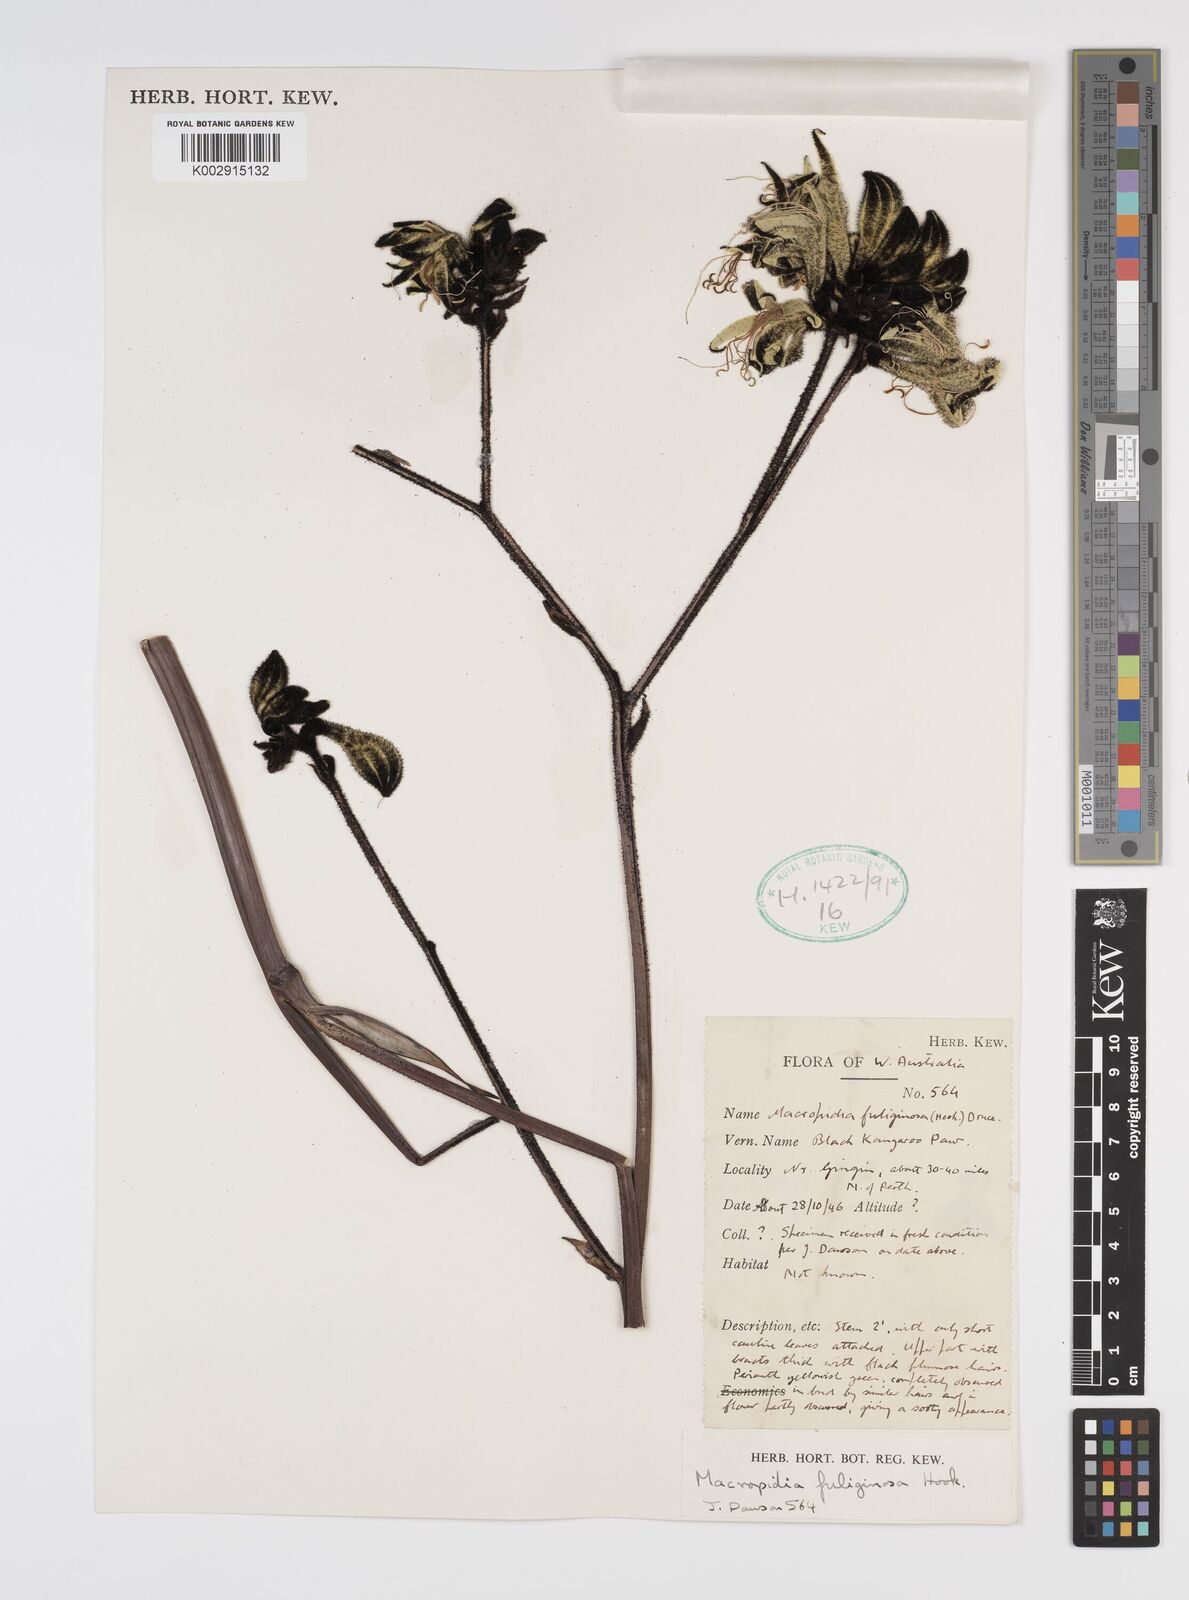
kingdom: Plantae
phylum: Tracheophyta
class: Liliopsida
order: Commelinales
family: Haemodoraceae
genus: Macropidia
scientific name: Macropidia fuliginosa
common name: Black kangaroo-paw
